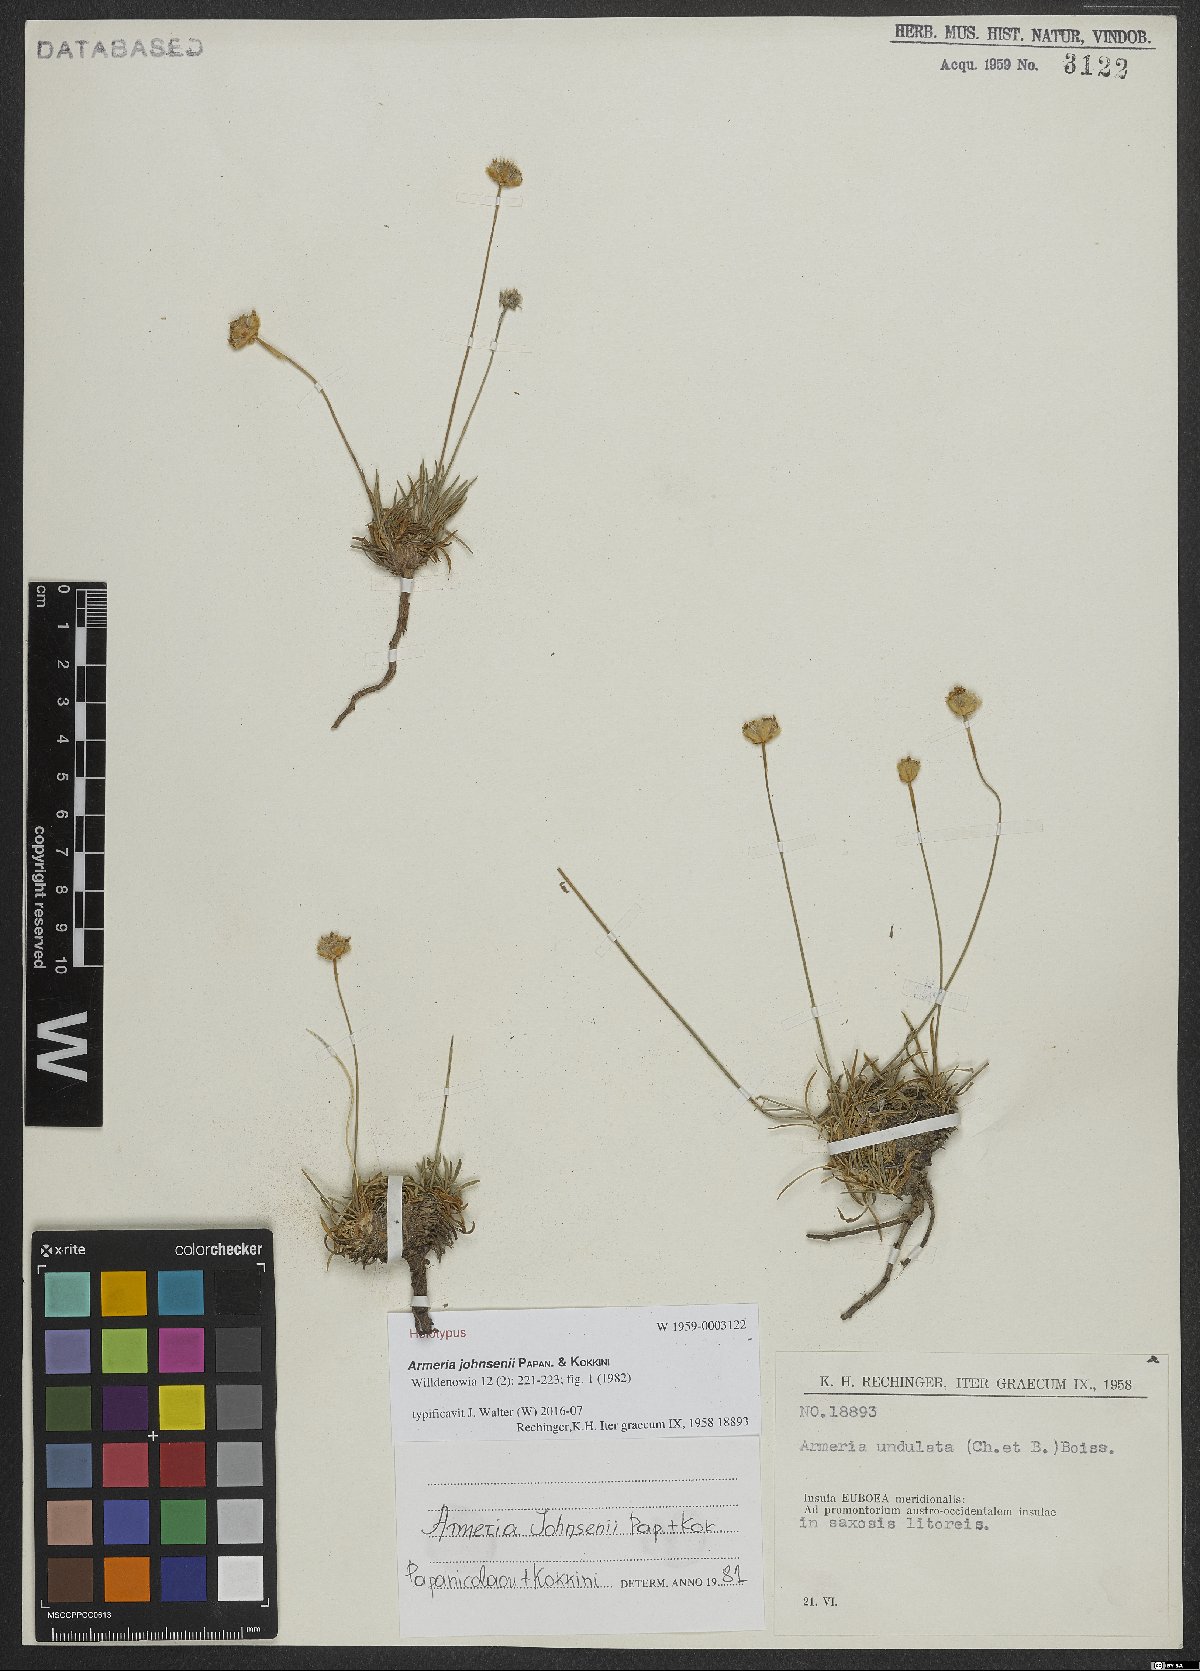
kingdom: Plantae
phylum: Tracheophyta
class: Magnoliopsida
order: Caryophyllales
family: Plumbaginaceae
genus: Armeria
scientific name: Armeria johnsenii
